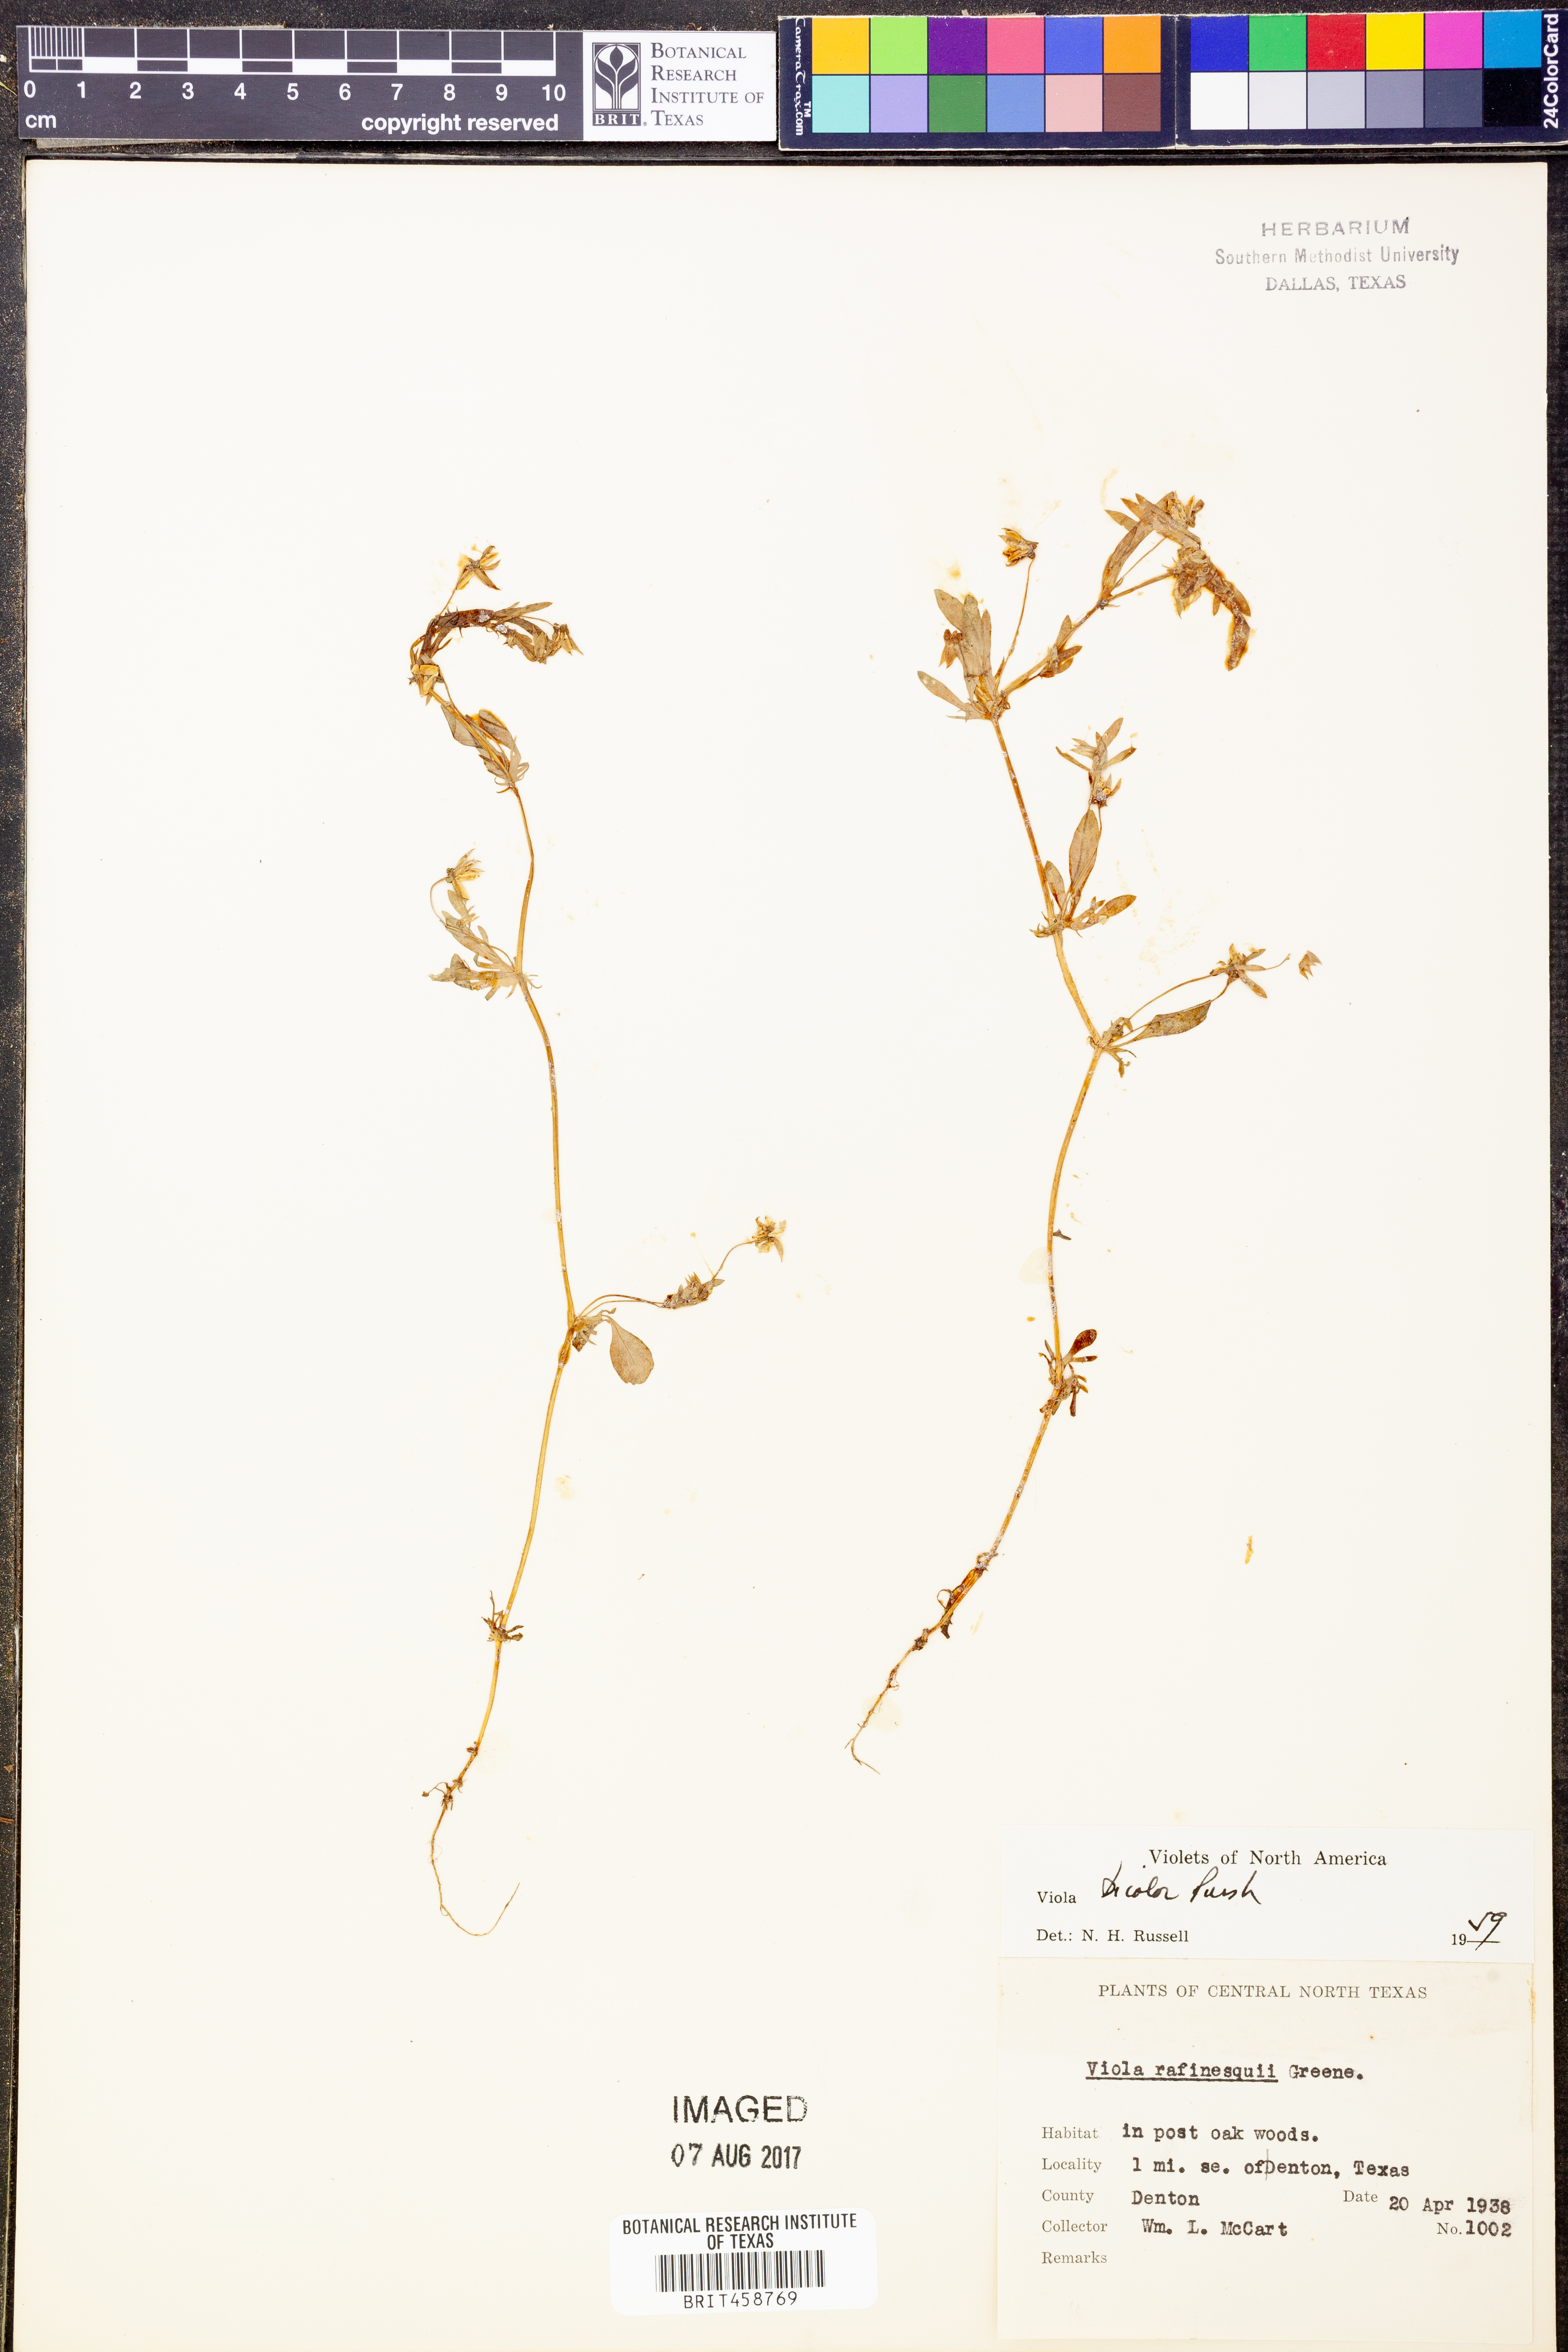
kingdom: Plantae
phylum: Tracheophyta
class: Magnoliopsida
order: Malpighiales
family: Violaceae
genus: Viola
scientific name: Viola rafinesquei
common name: American field pansy
